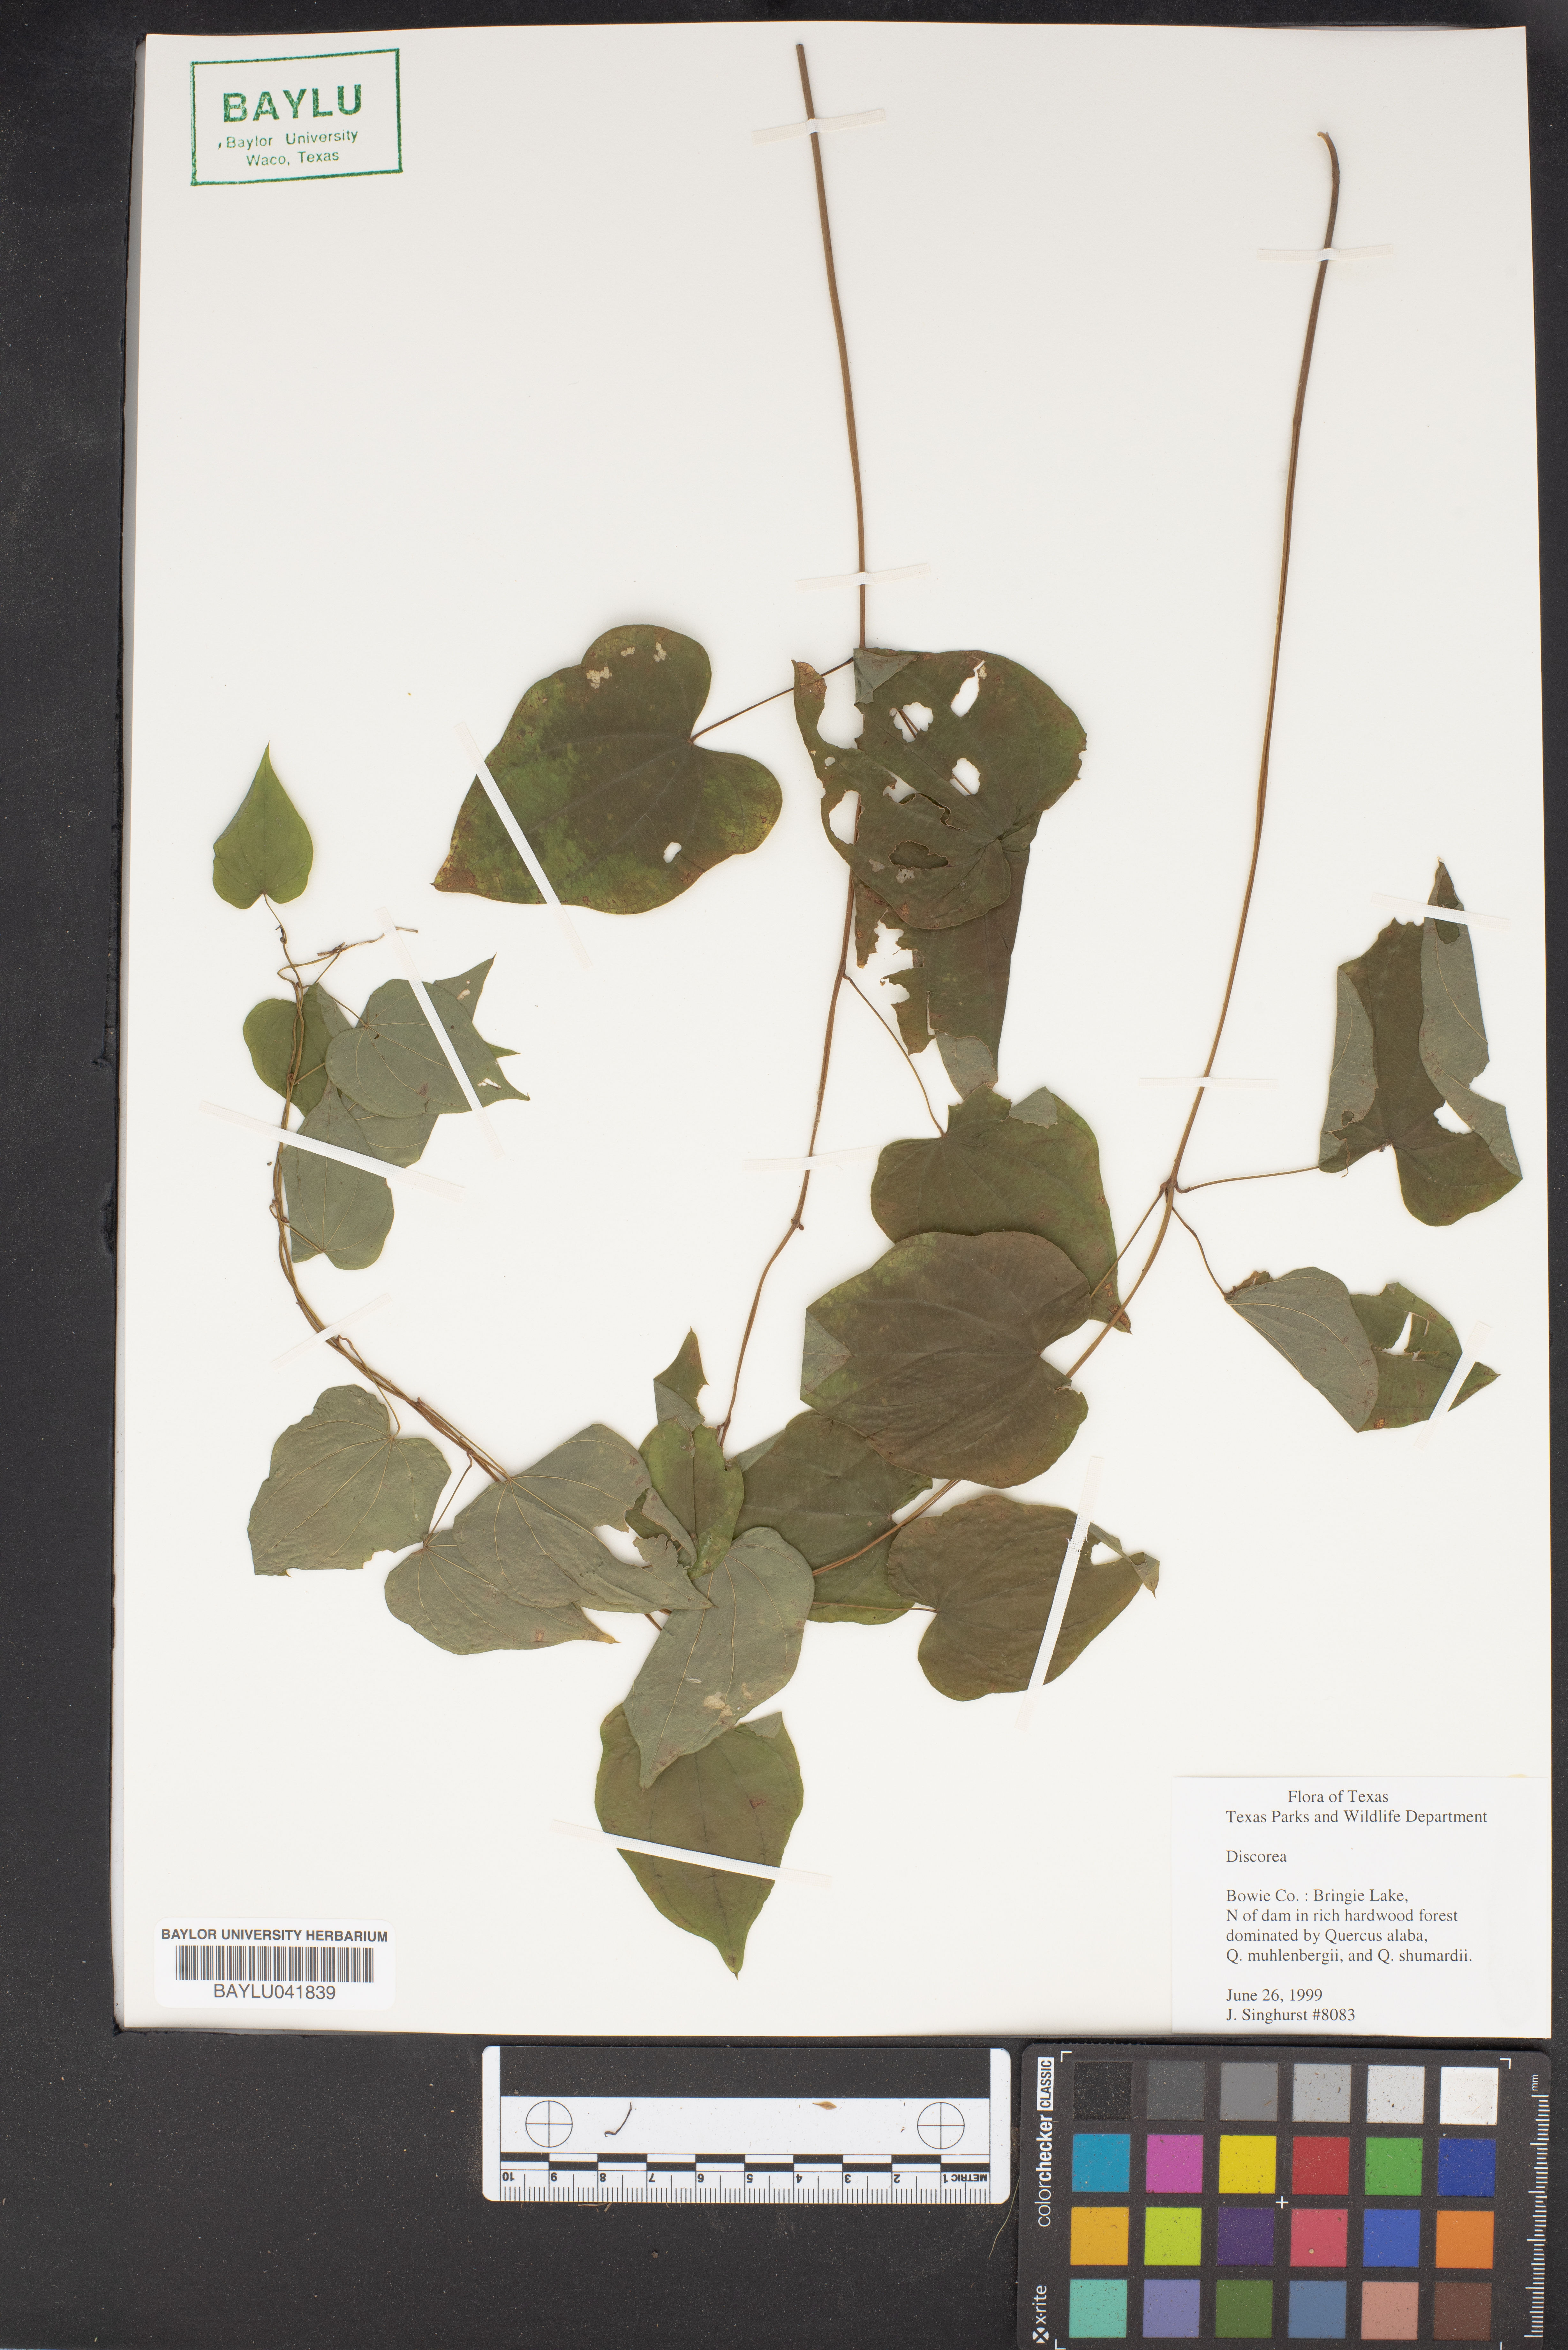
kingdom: Plantae
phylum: Tracheophyta
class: Liliopsida
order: Dioscoreales
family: Dioscoreaceae
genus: Dioscorea
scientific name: Dioscorea
